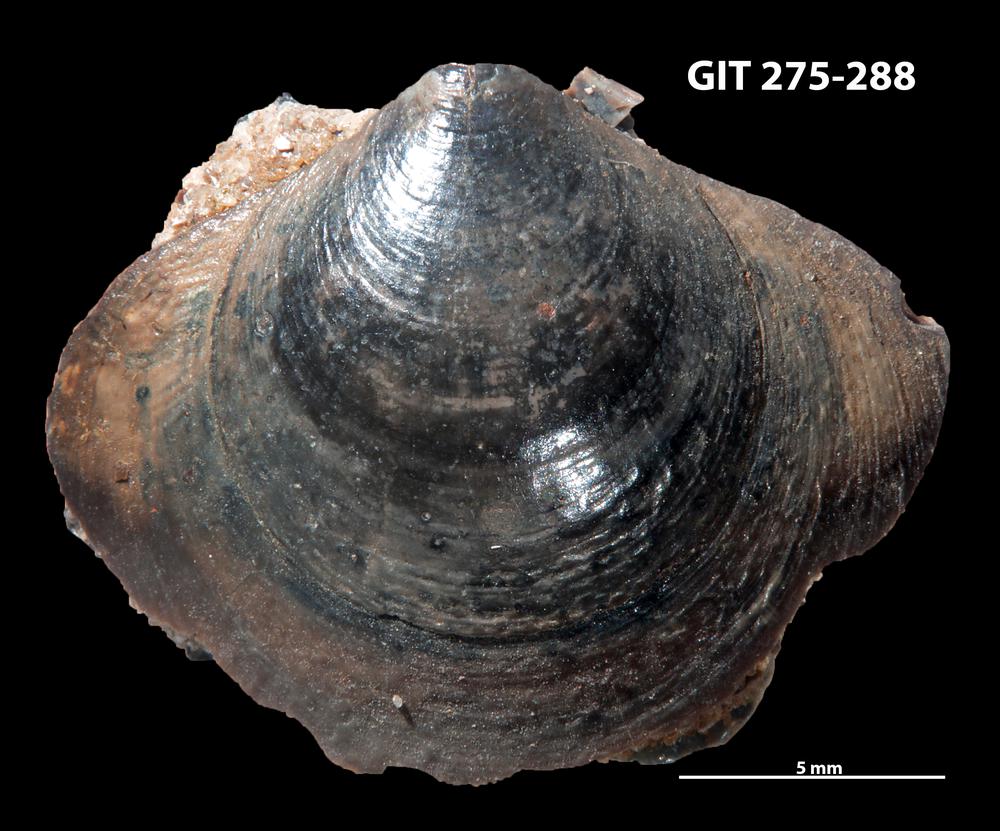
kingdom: Animalia
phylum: Brachiopoda
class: Lingulata
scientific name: Lingulata
